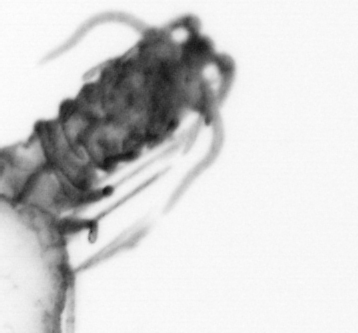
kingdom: Animalia
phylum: Annelida
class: Polychaeta
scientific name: Polychaeta
